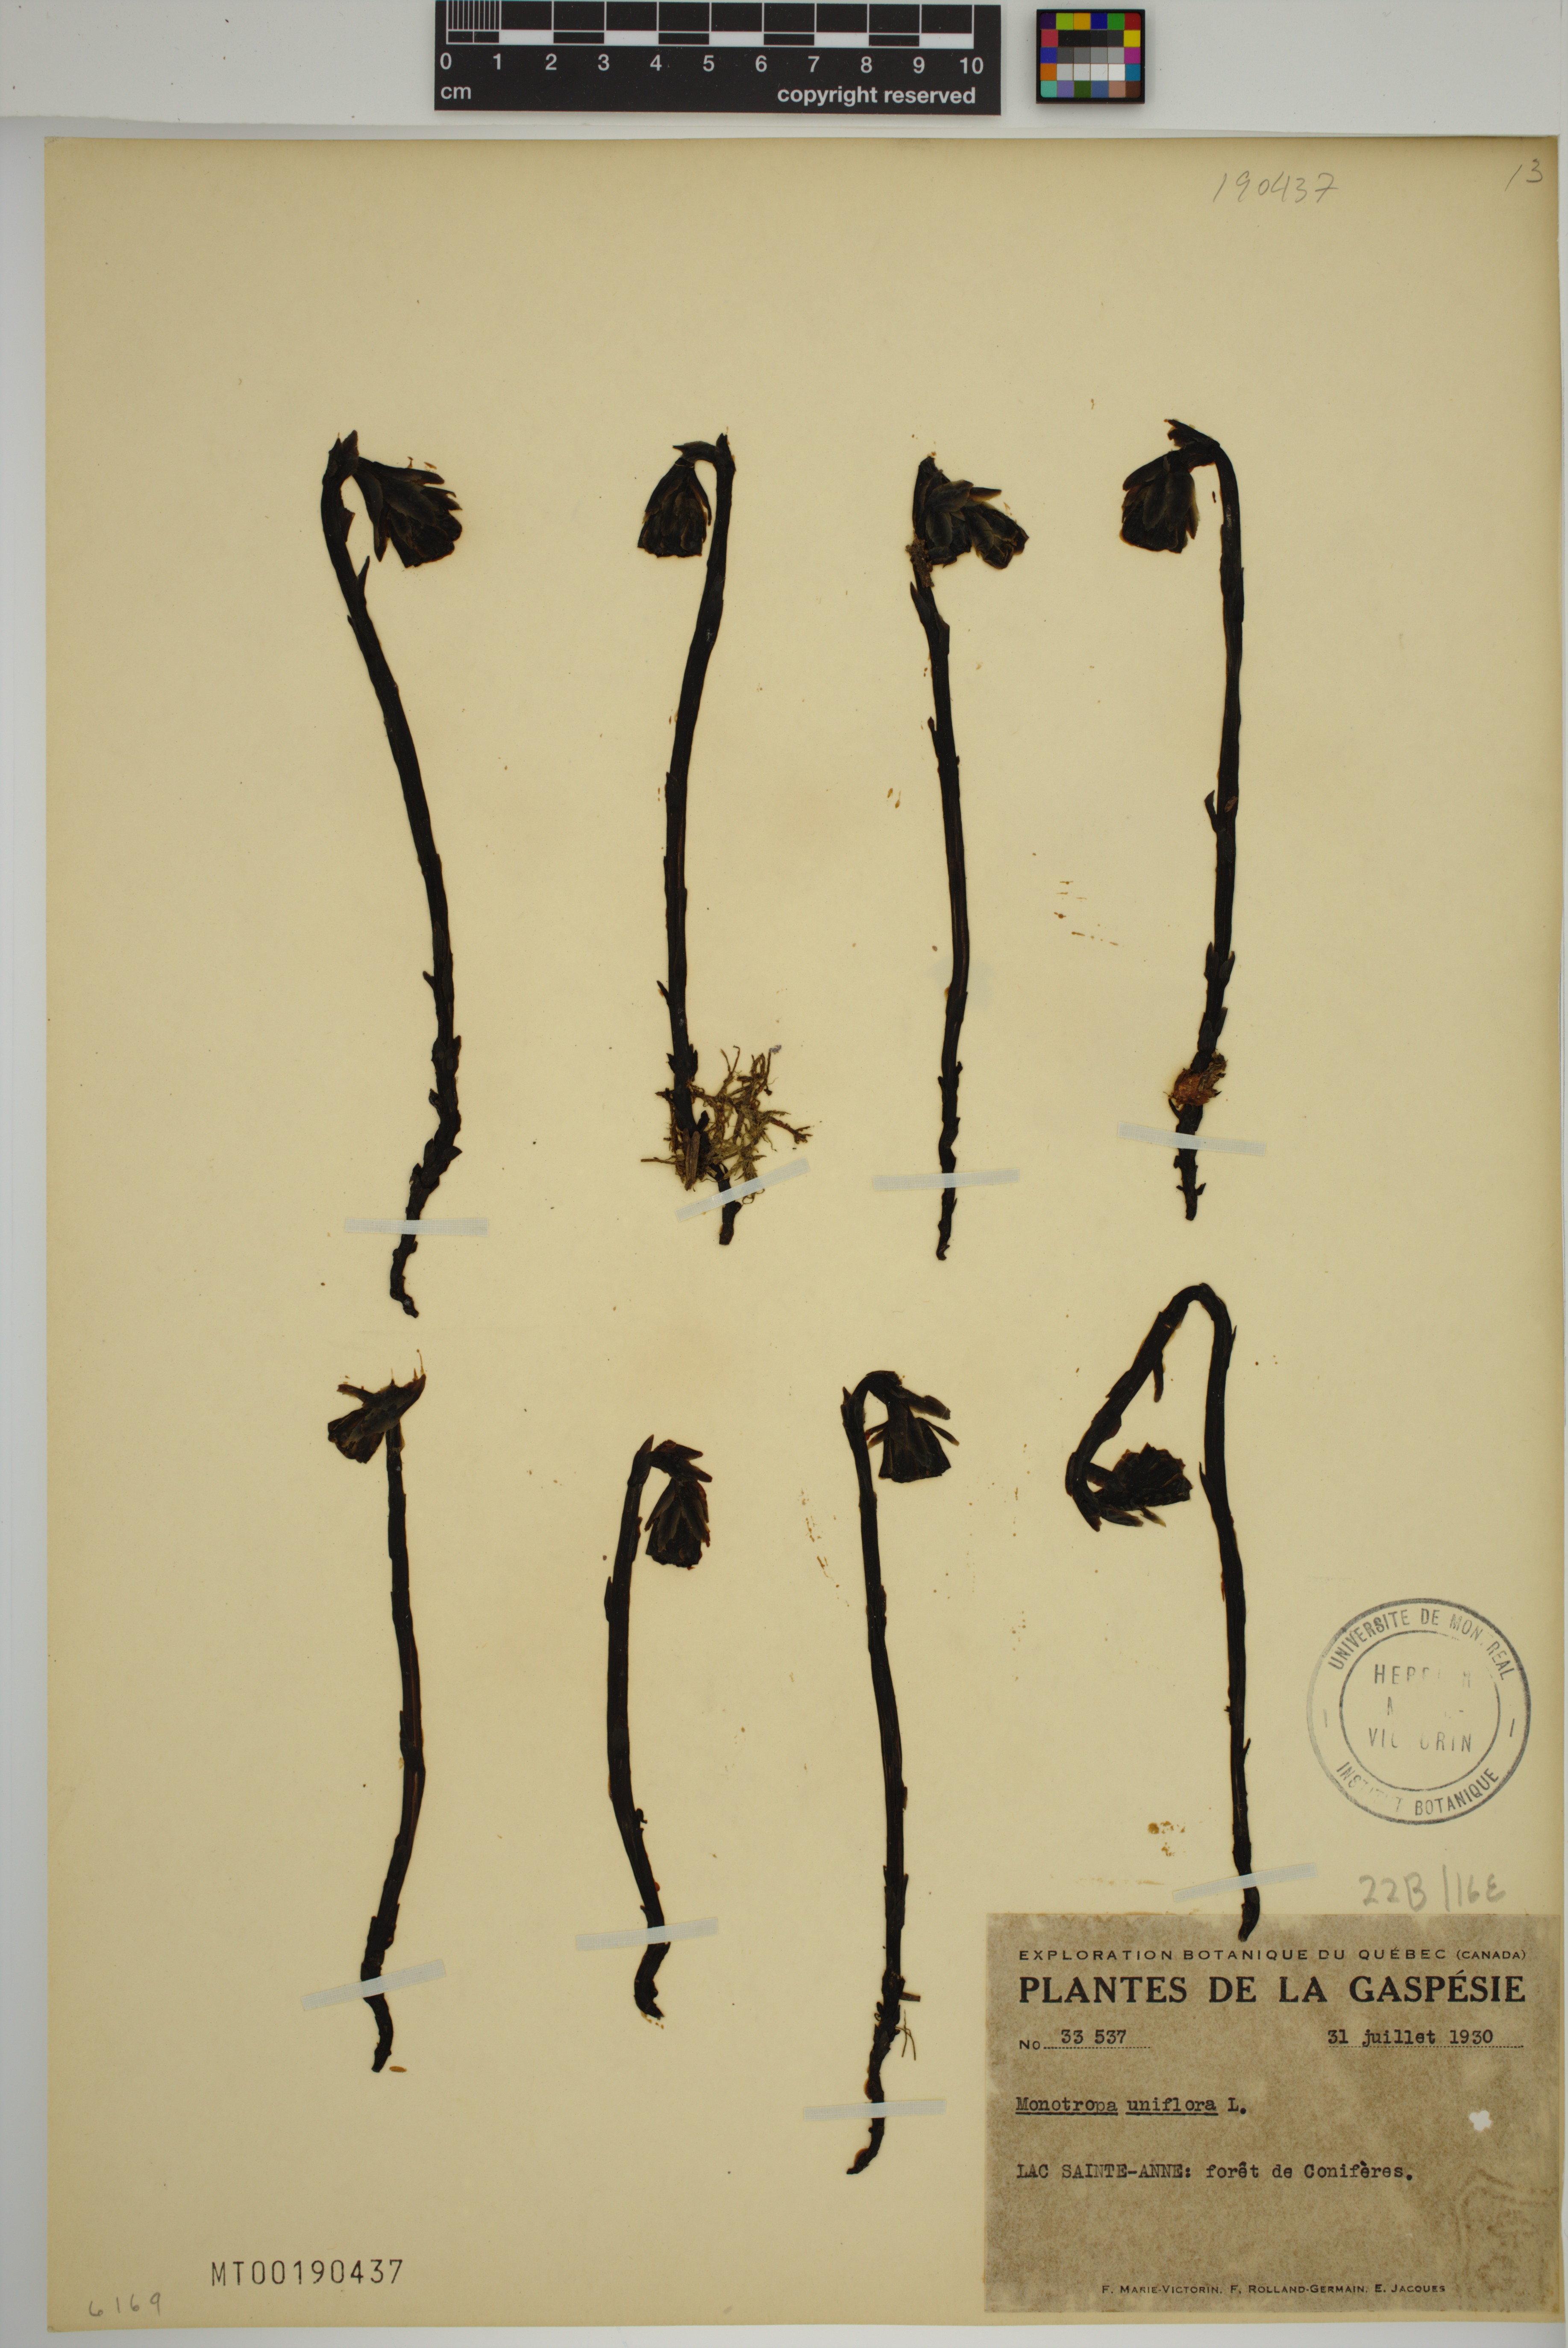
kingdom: Plantae
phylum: Tracheophyta
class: Magnoliopsida
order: Ericales
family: Ericaceae
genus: Monotropa
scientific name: Monotropa uniflora
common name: Convulsion root
